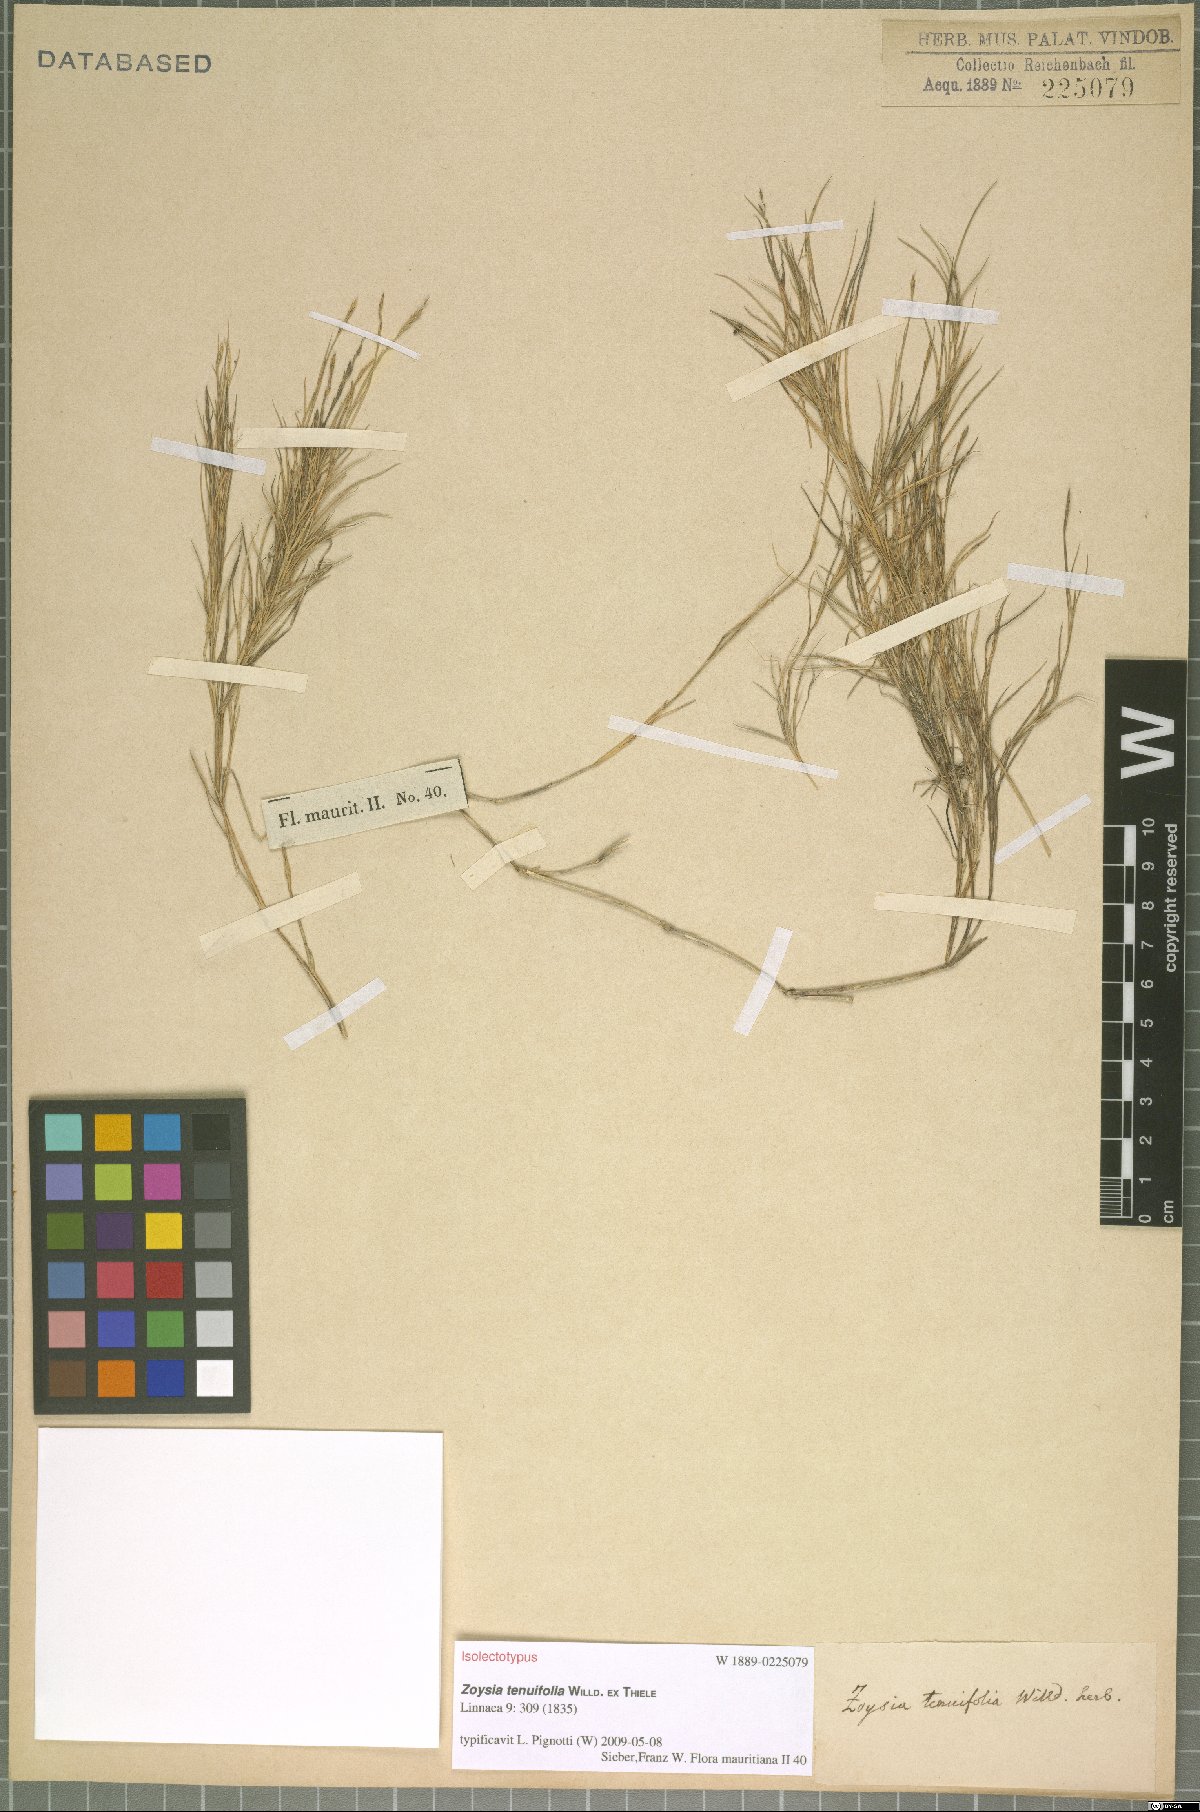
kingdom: Plantae
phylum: Tracheophyta
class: Liliopsida
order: Poales
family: Poaceae
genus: Zoysia
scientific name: Zoysia matrella
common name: Manila grass
